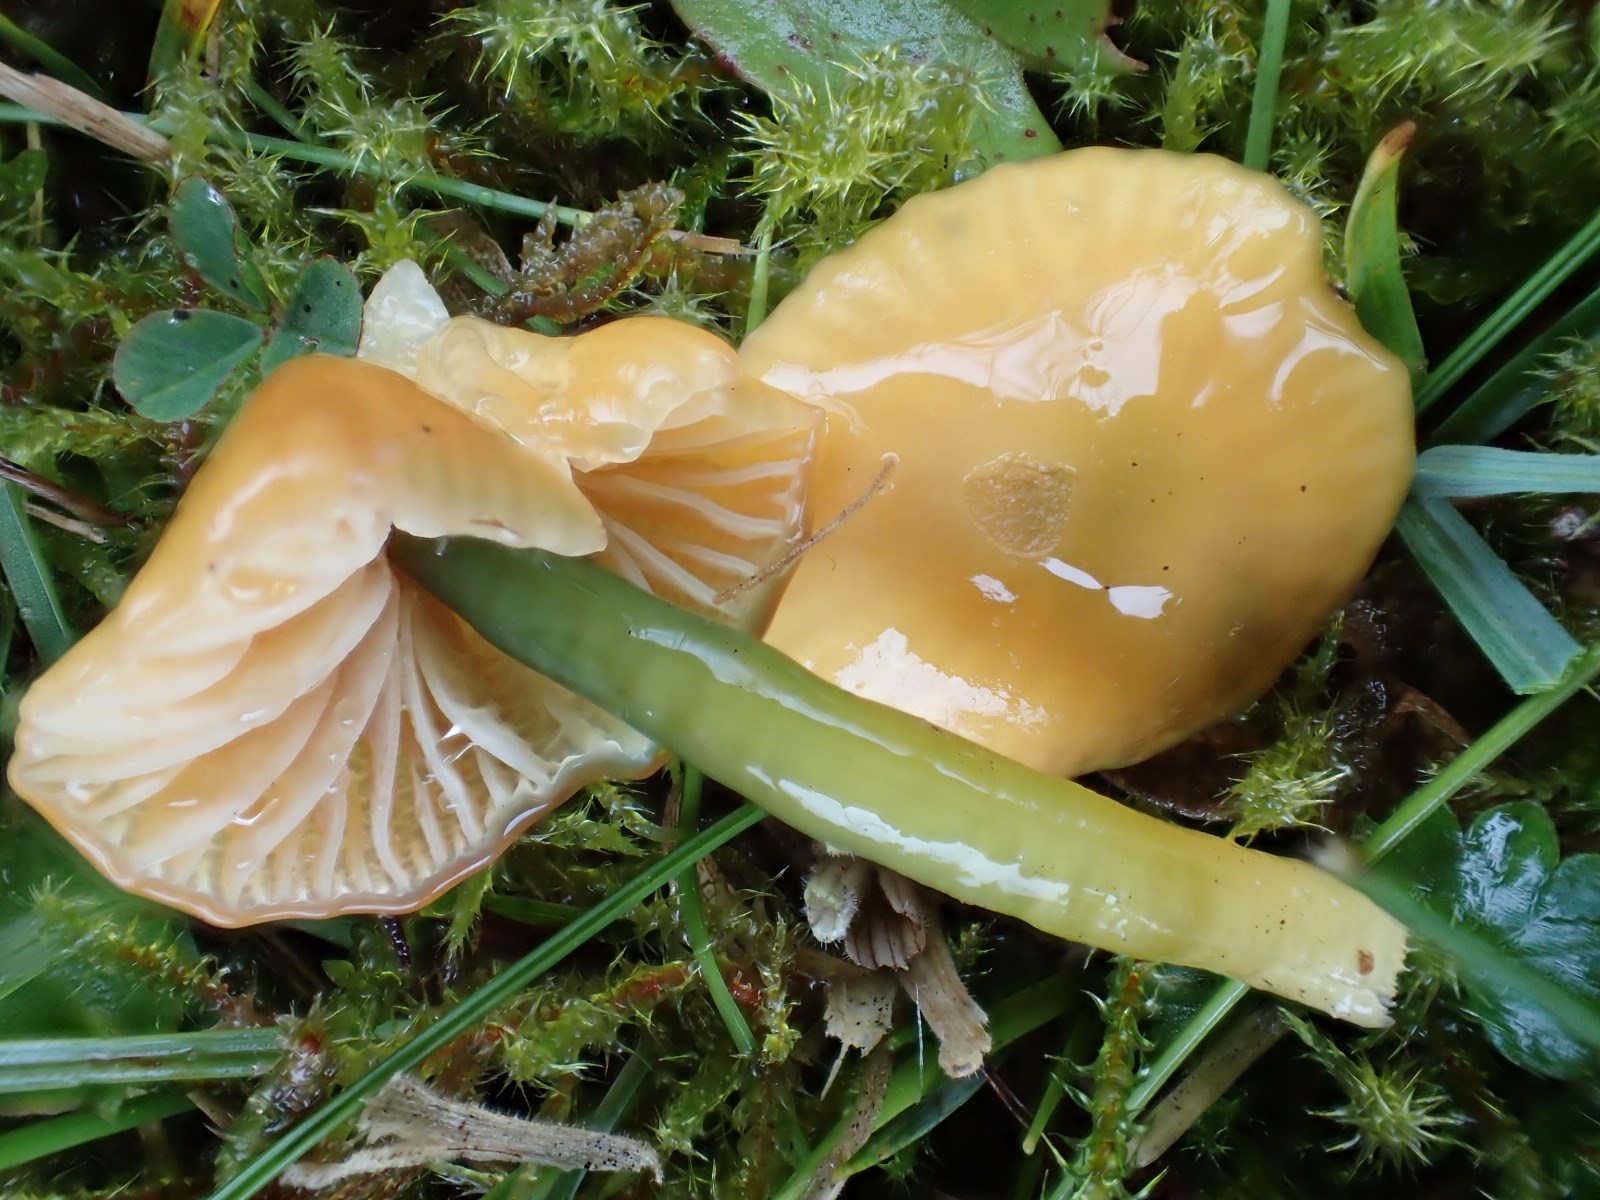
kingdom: Fungi
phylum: Basidiomycota
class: Agaricomycetes
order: Agaricales
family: Hygrophoraceae
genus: Gliophorus
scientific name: Gliophorus psittacinus
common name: papegøje-vokshat
